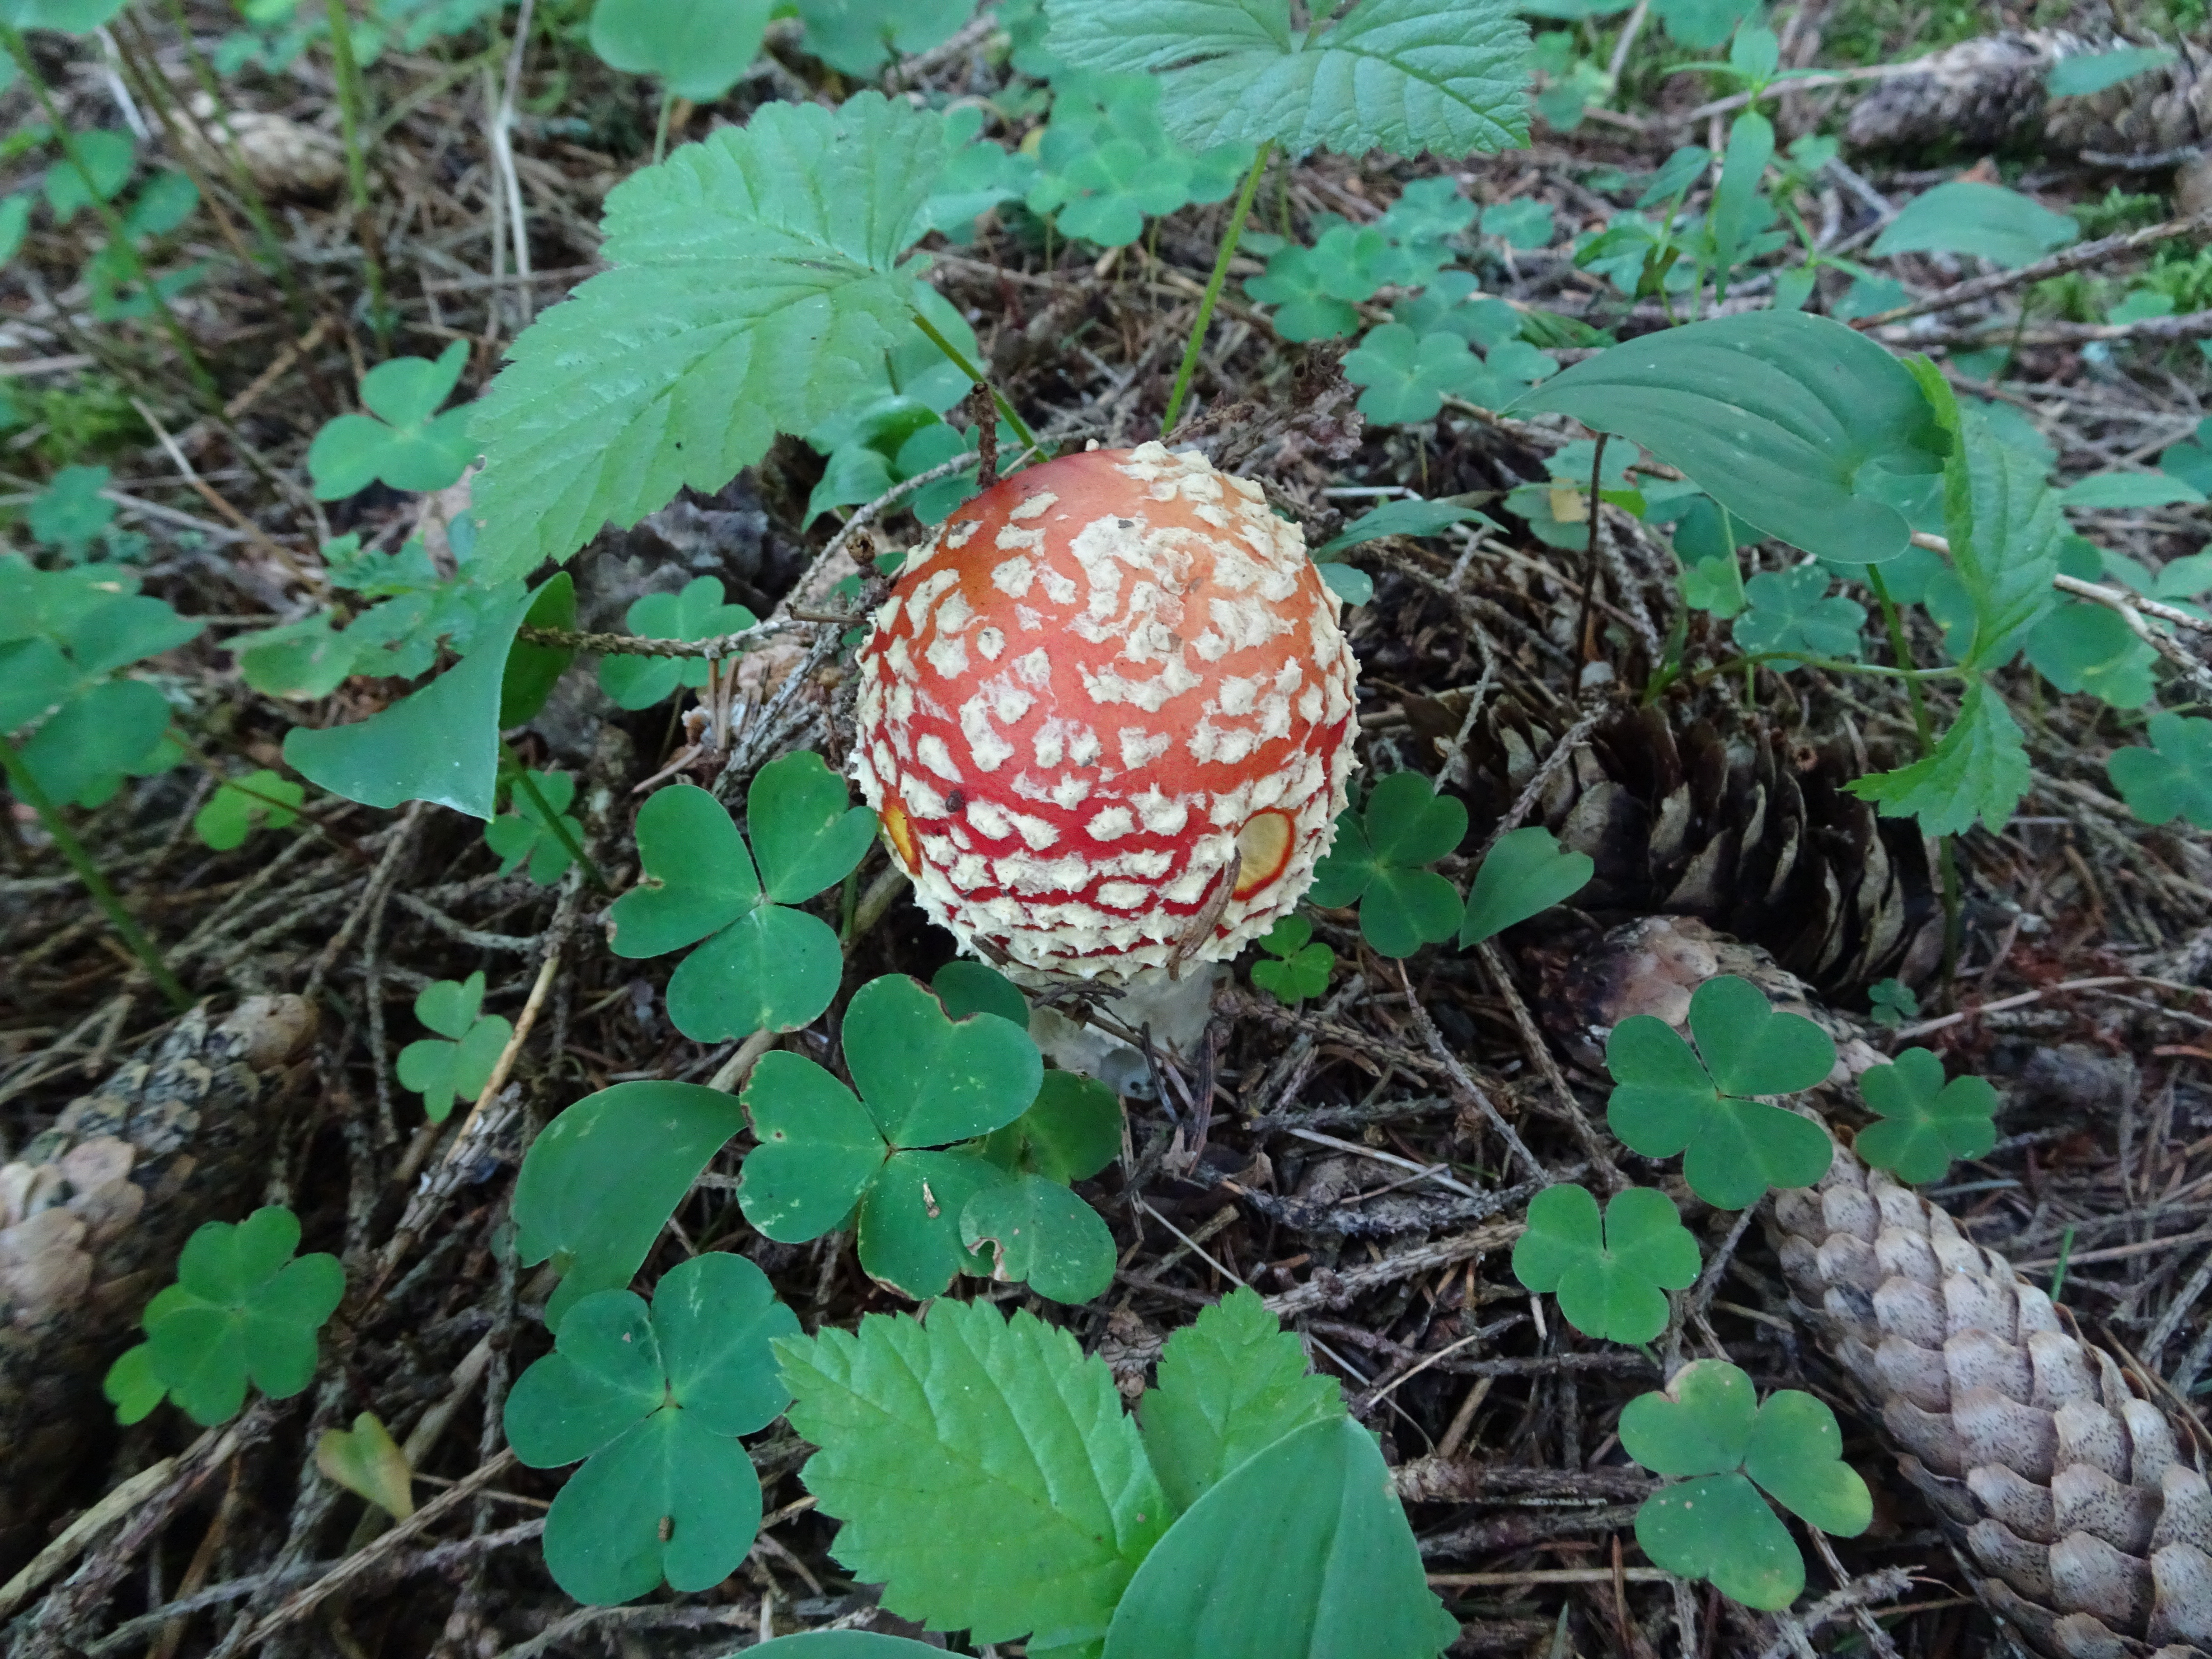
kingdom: Fungi
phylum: Basidiomycota
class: Agaricomycetes
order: Agaricales
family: Amanitaceae
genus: Amanita
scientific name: Amanita muscaria
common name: Fly agaric
